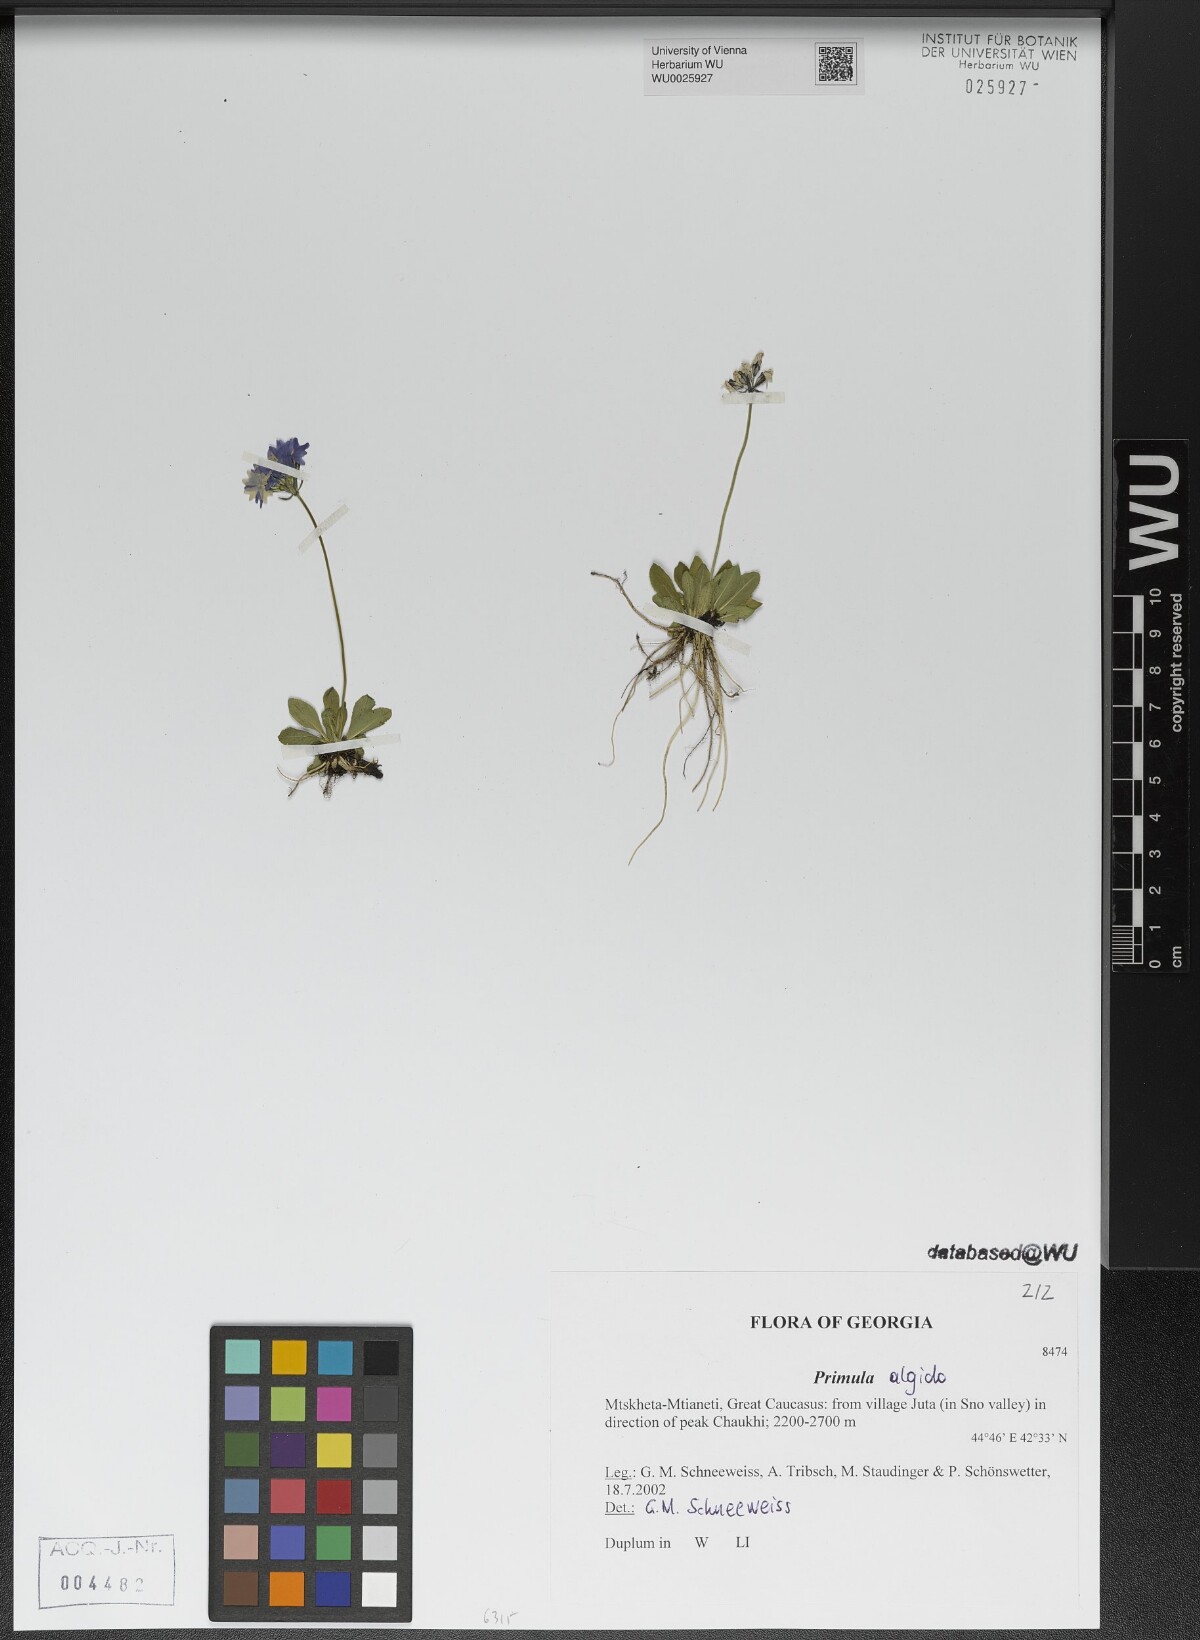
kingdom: Plantae
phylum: Tracheophyta
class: Magnoliopsida
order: Ericales
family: Primulaceae
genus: Primula
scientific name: Primula algida
